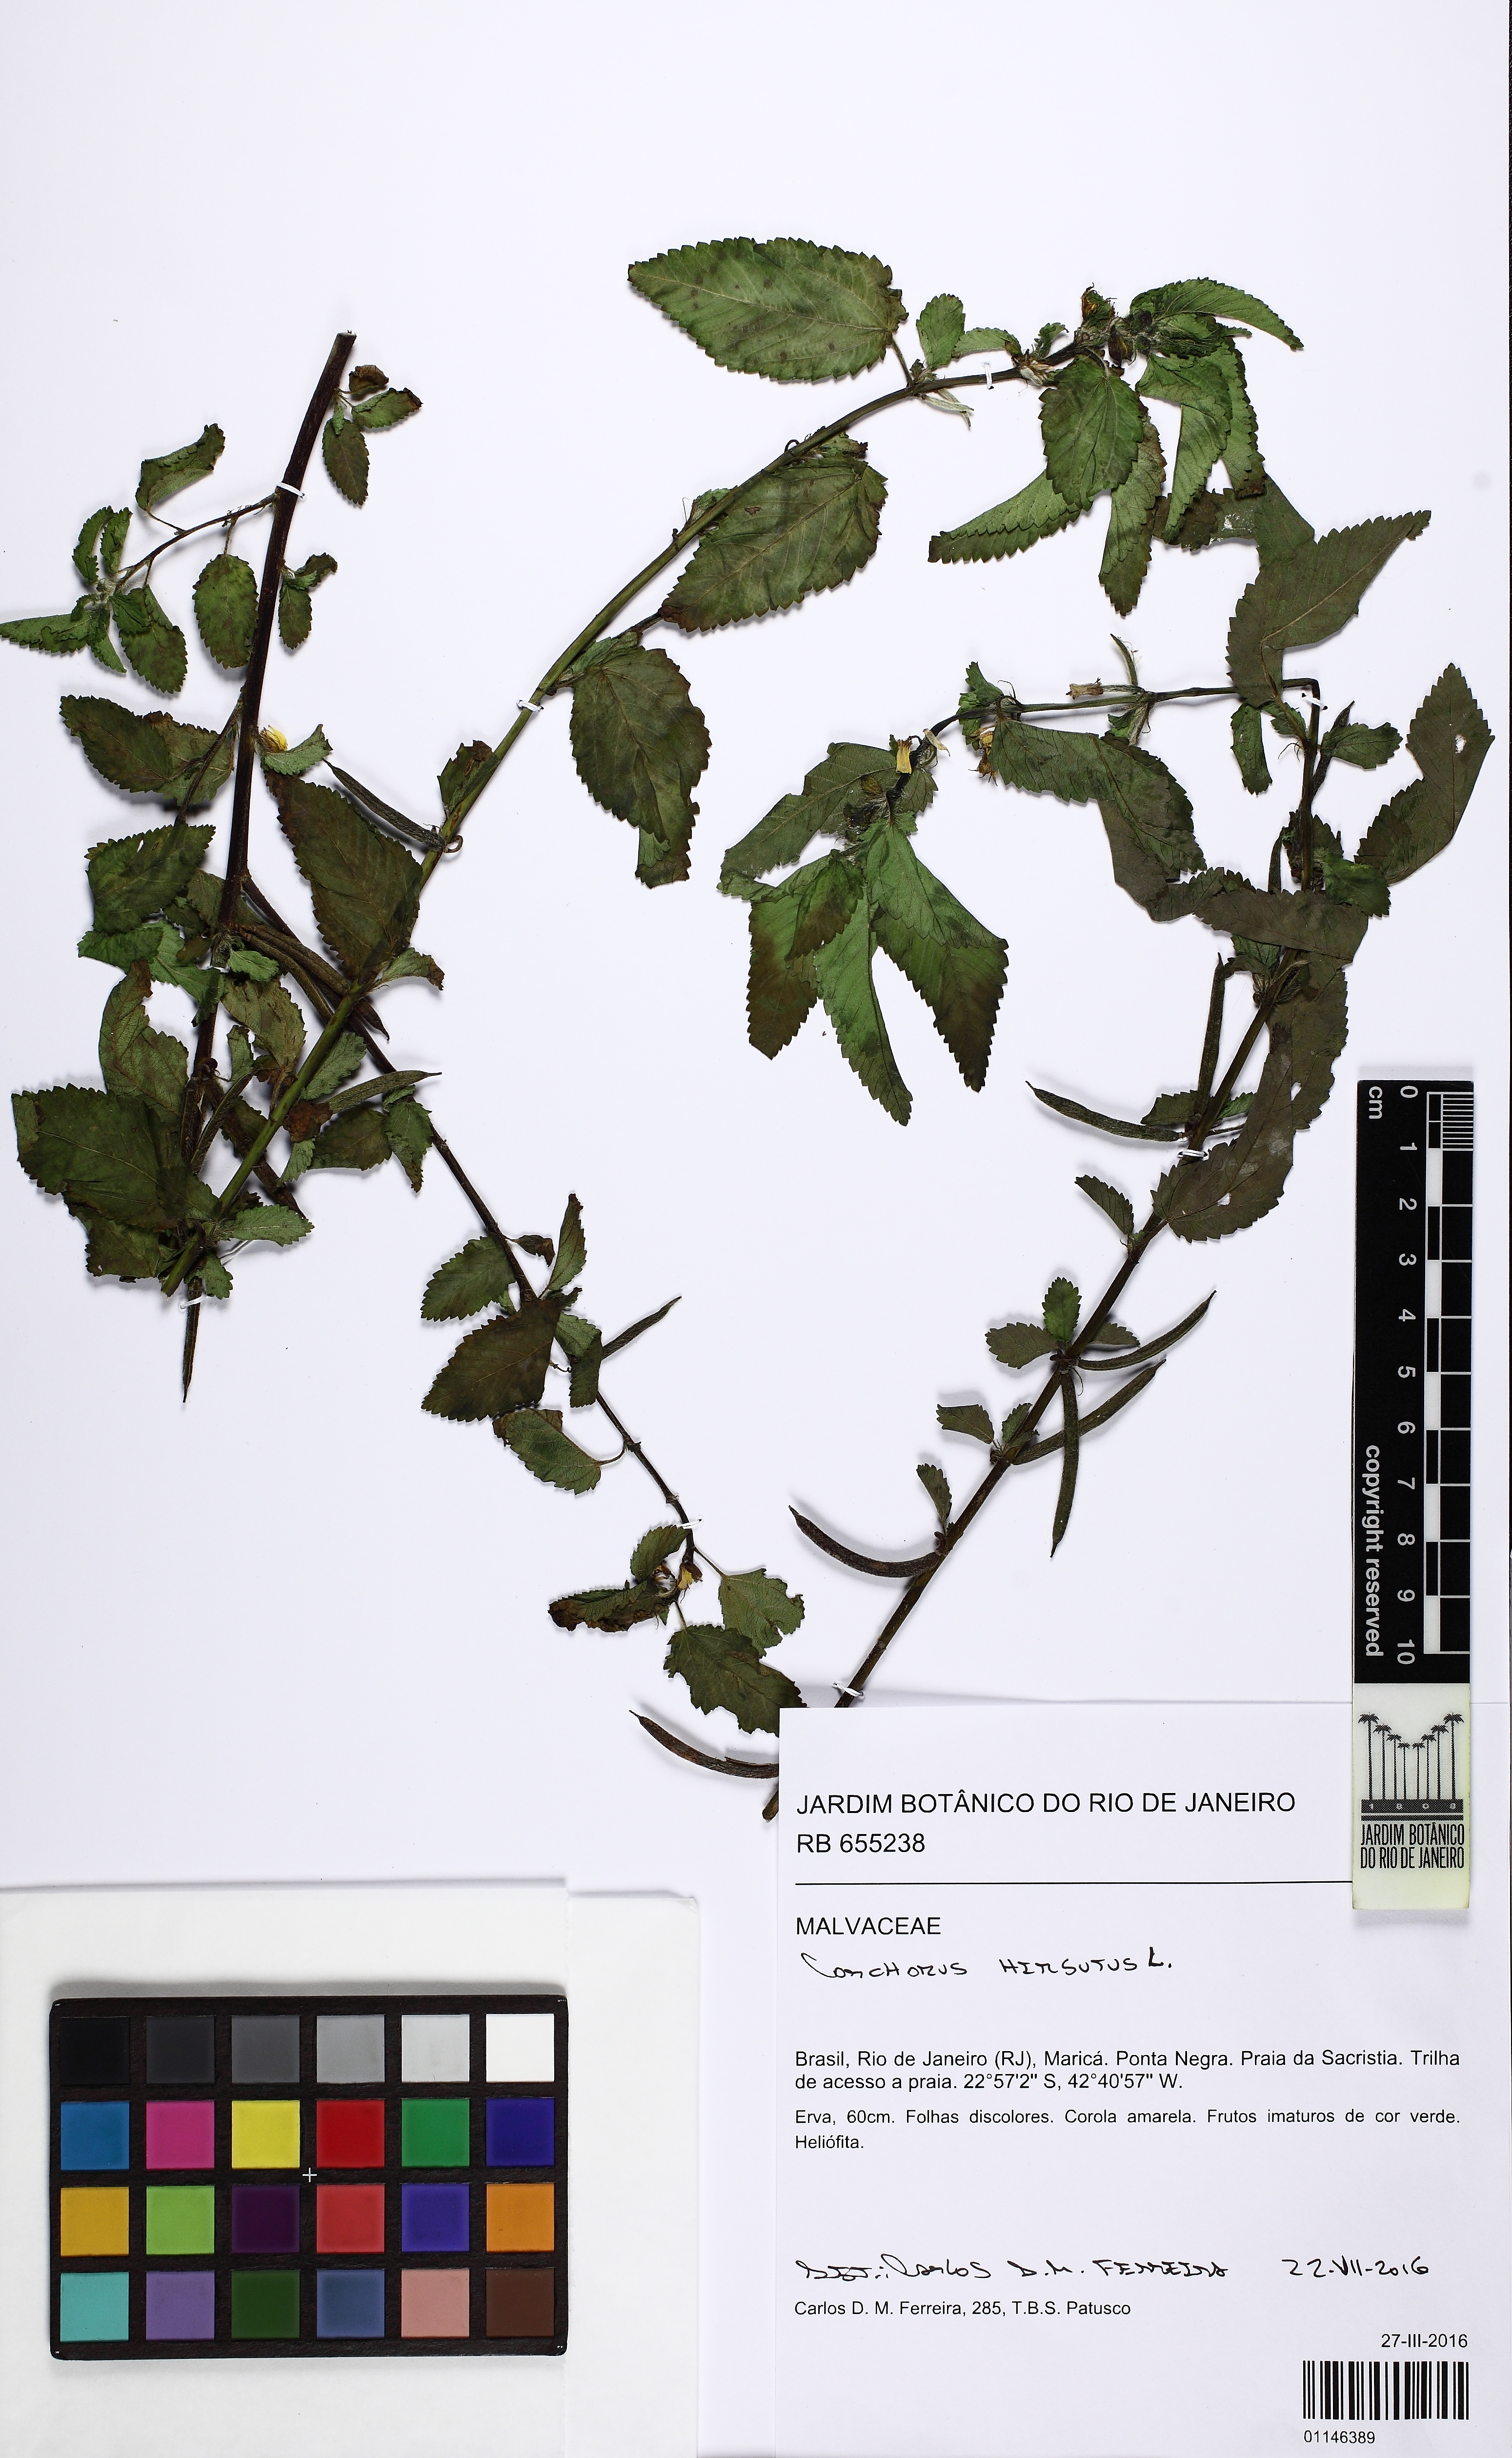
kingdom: Plantae
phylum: Tracheophyta
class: Magnoliopsida
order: Malvales
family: Malvaceae
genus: Corchorus
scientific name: Corchorus hirtus
